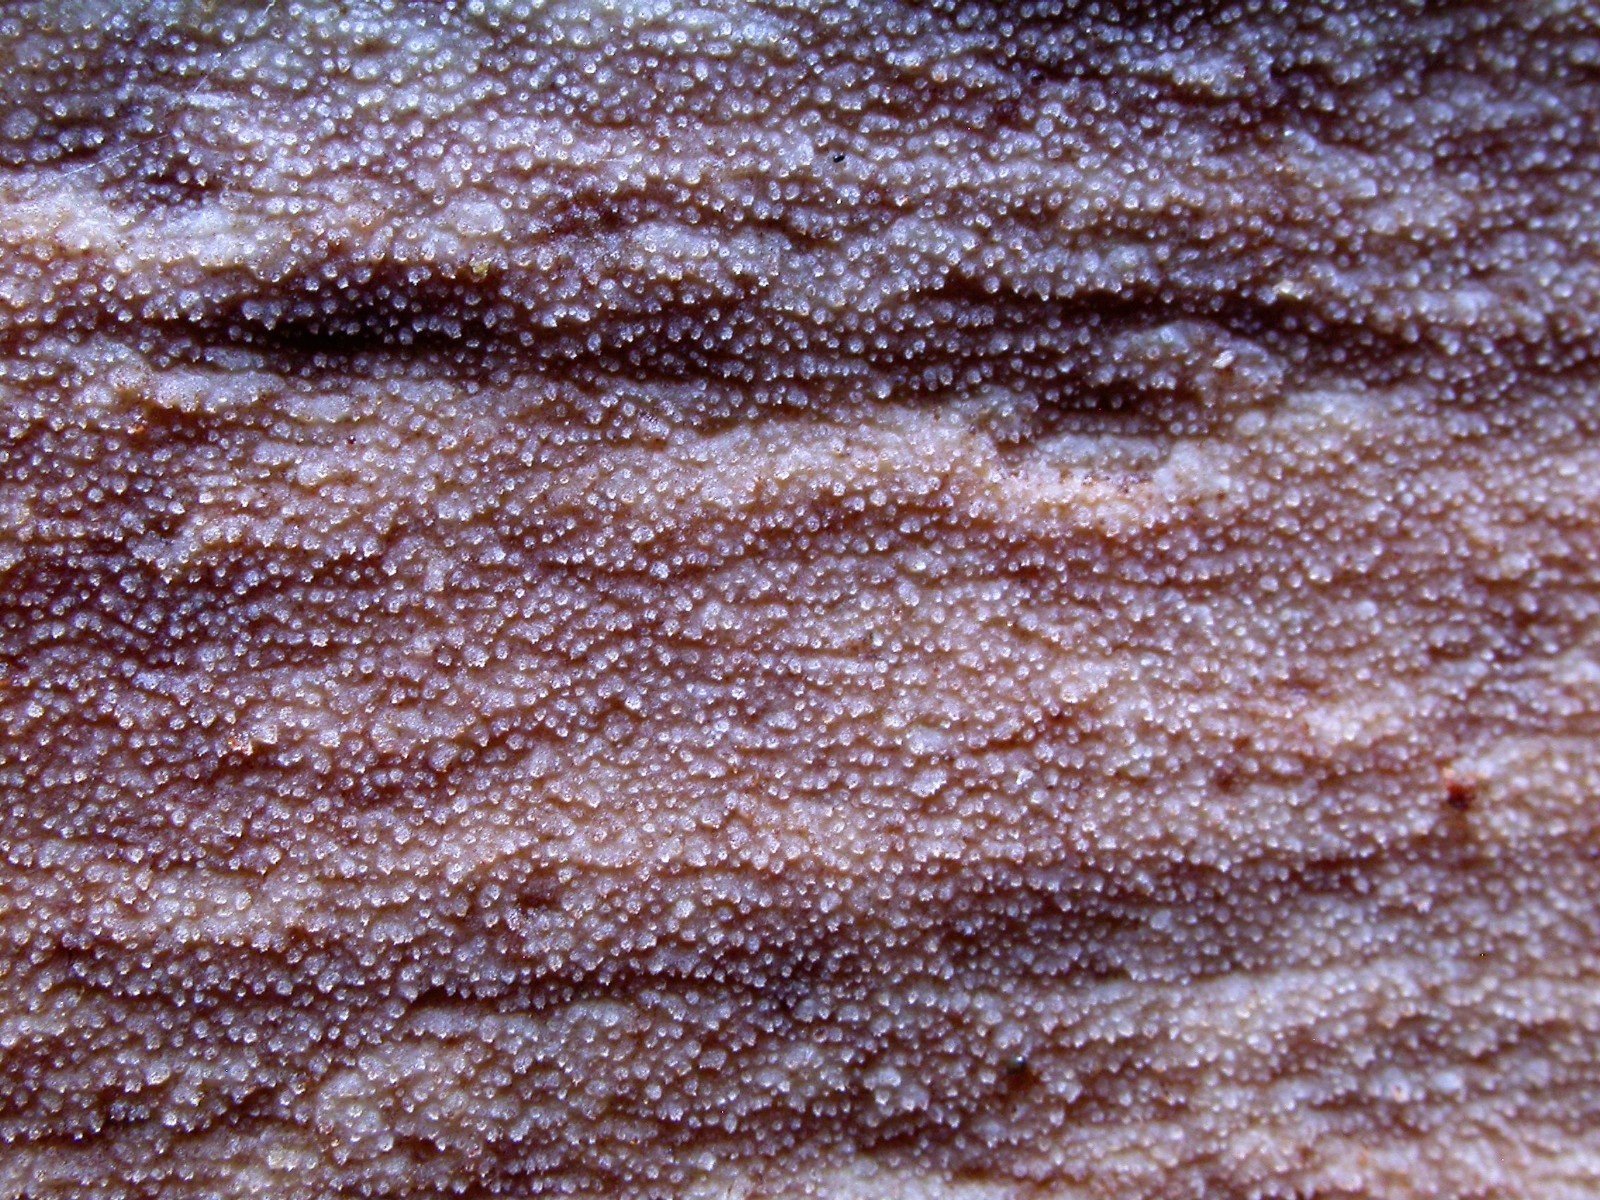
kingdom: Fungi
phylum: Basidiomycota
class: Agaricomycetes
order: Hymenochaetales
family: Rickenellaceae
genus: Resinicium
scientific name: Resinicium bicolor
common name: almindelig vokstand
